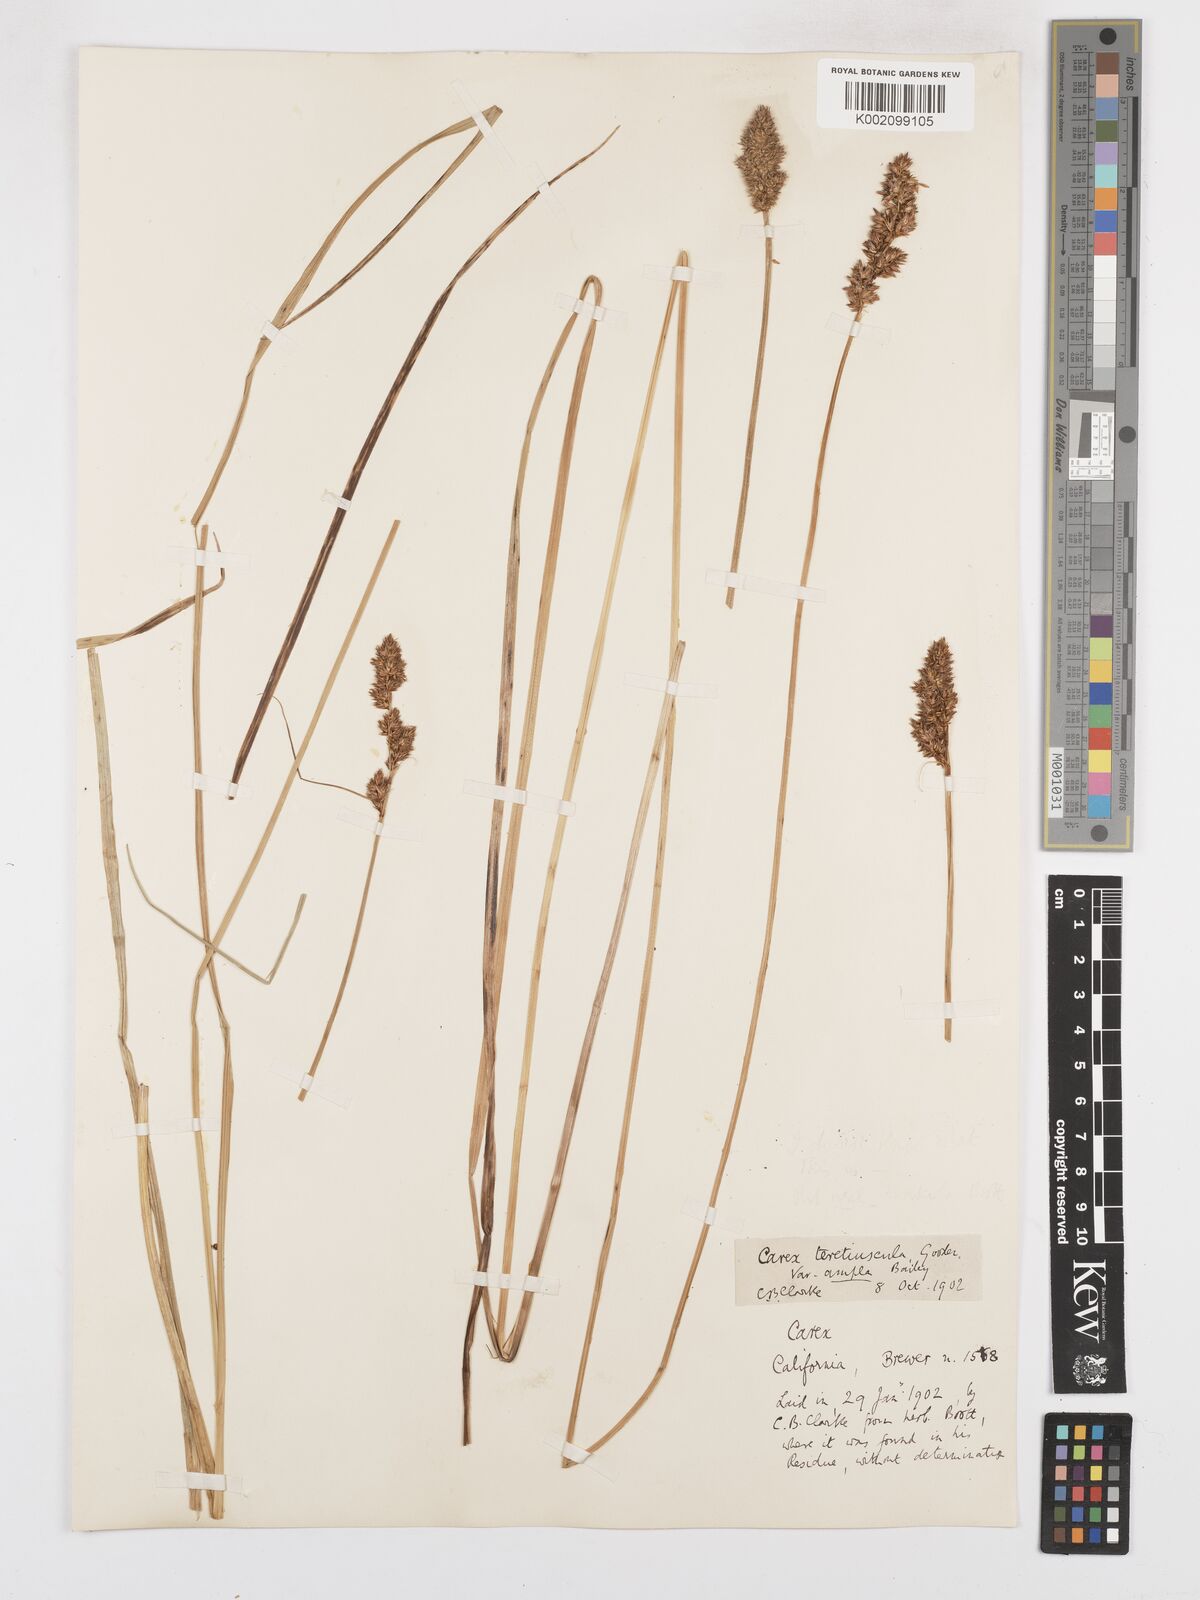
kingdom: Plantae
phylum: Tracheophyta
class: Liliopsida
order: Poales
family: Cyperaceae
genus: Carex
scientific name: Carex cusickii
